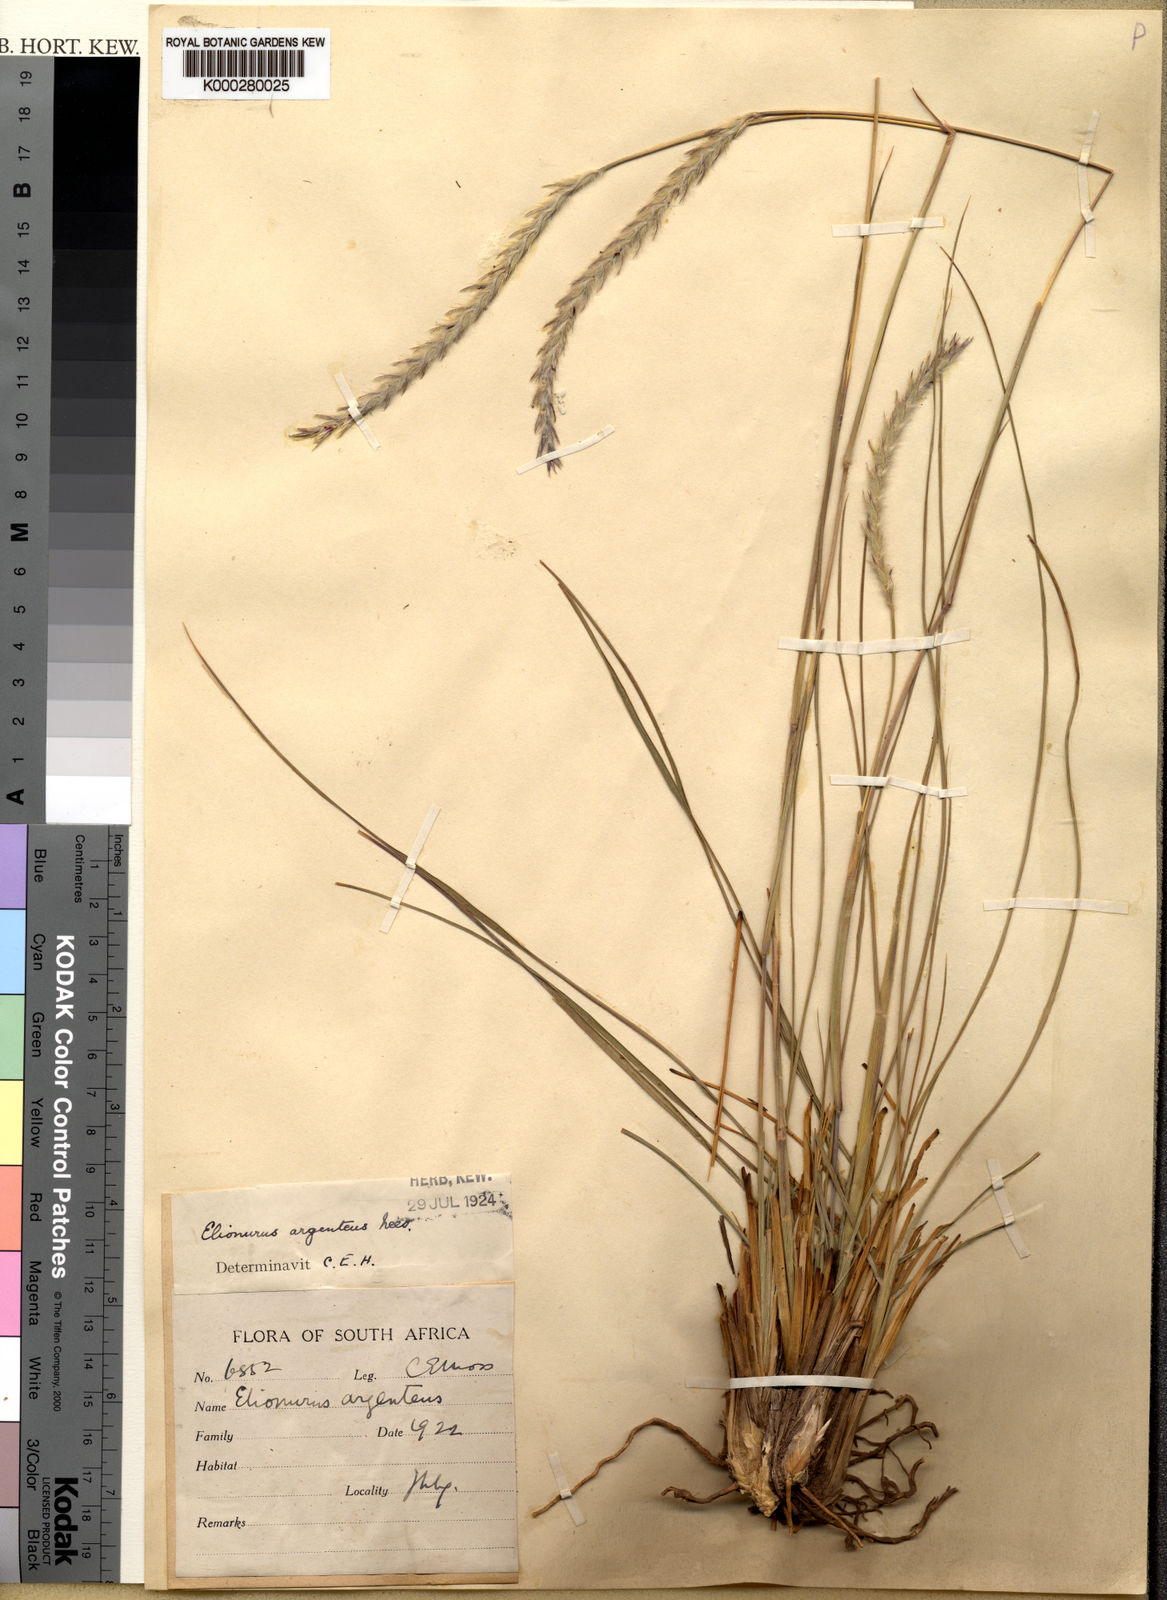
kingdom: Plantae
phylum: Tracheophyta
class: Liliopsida
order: Poales
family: Poaceae
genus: Elionurus
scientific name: Elionurus muticus
